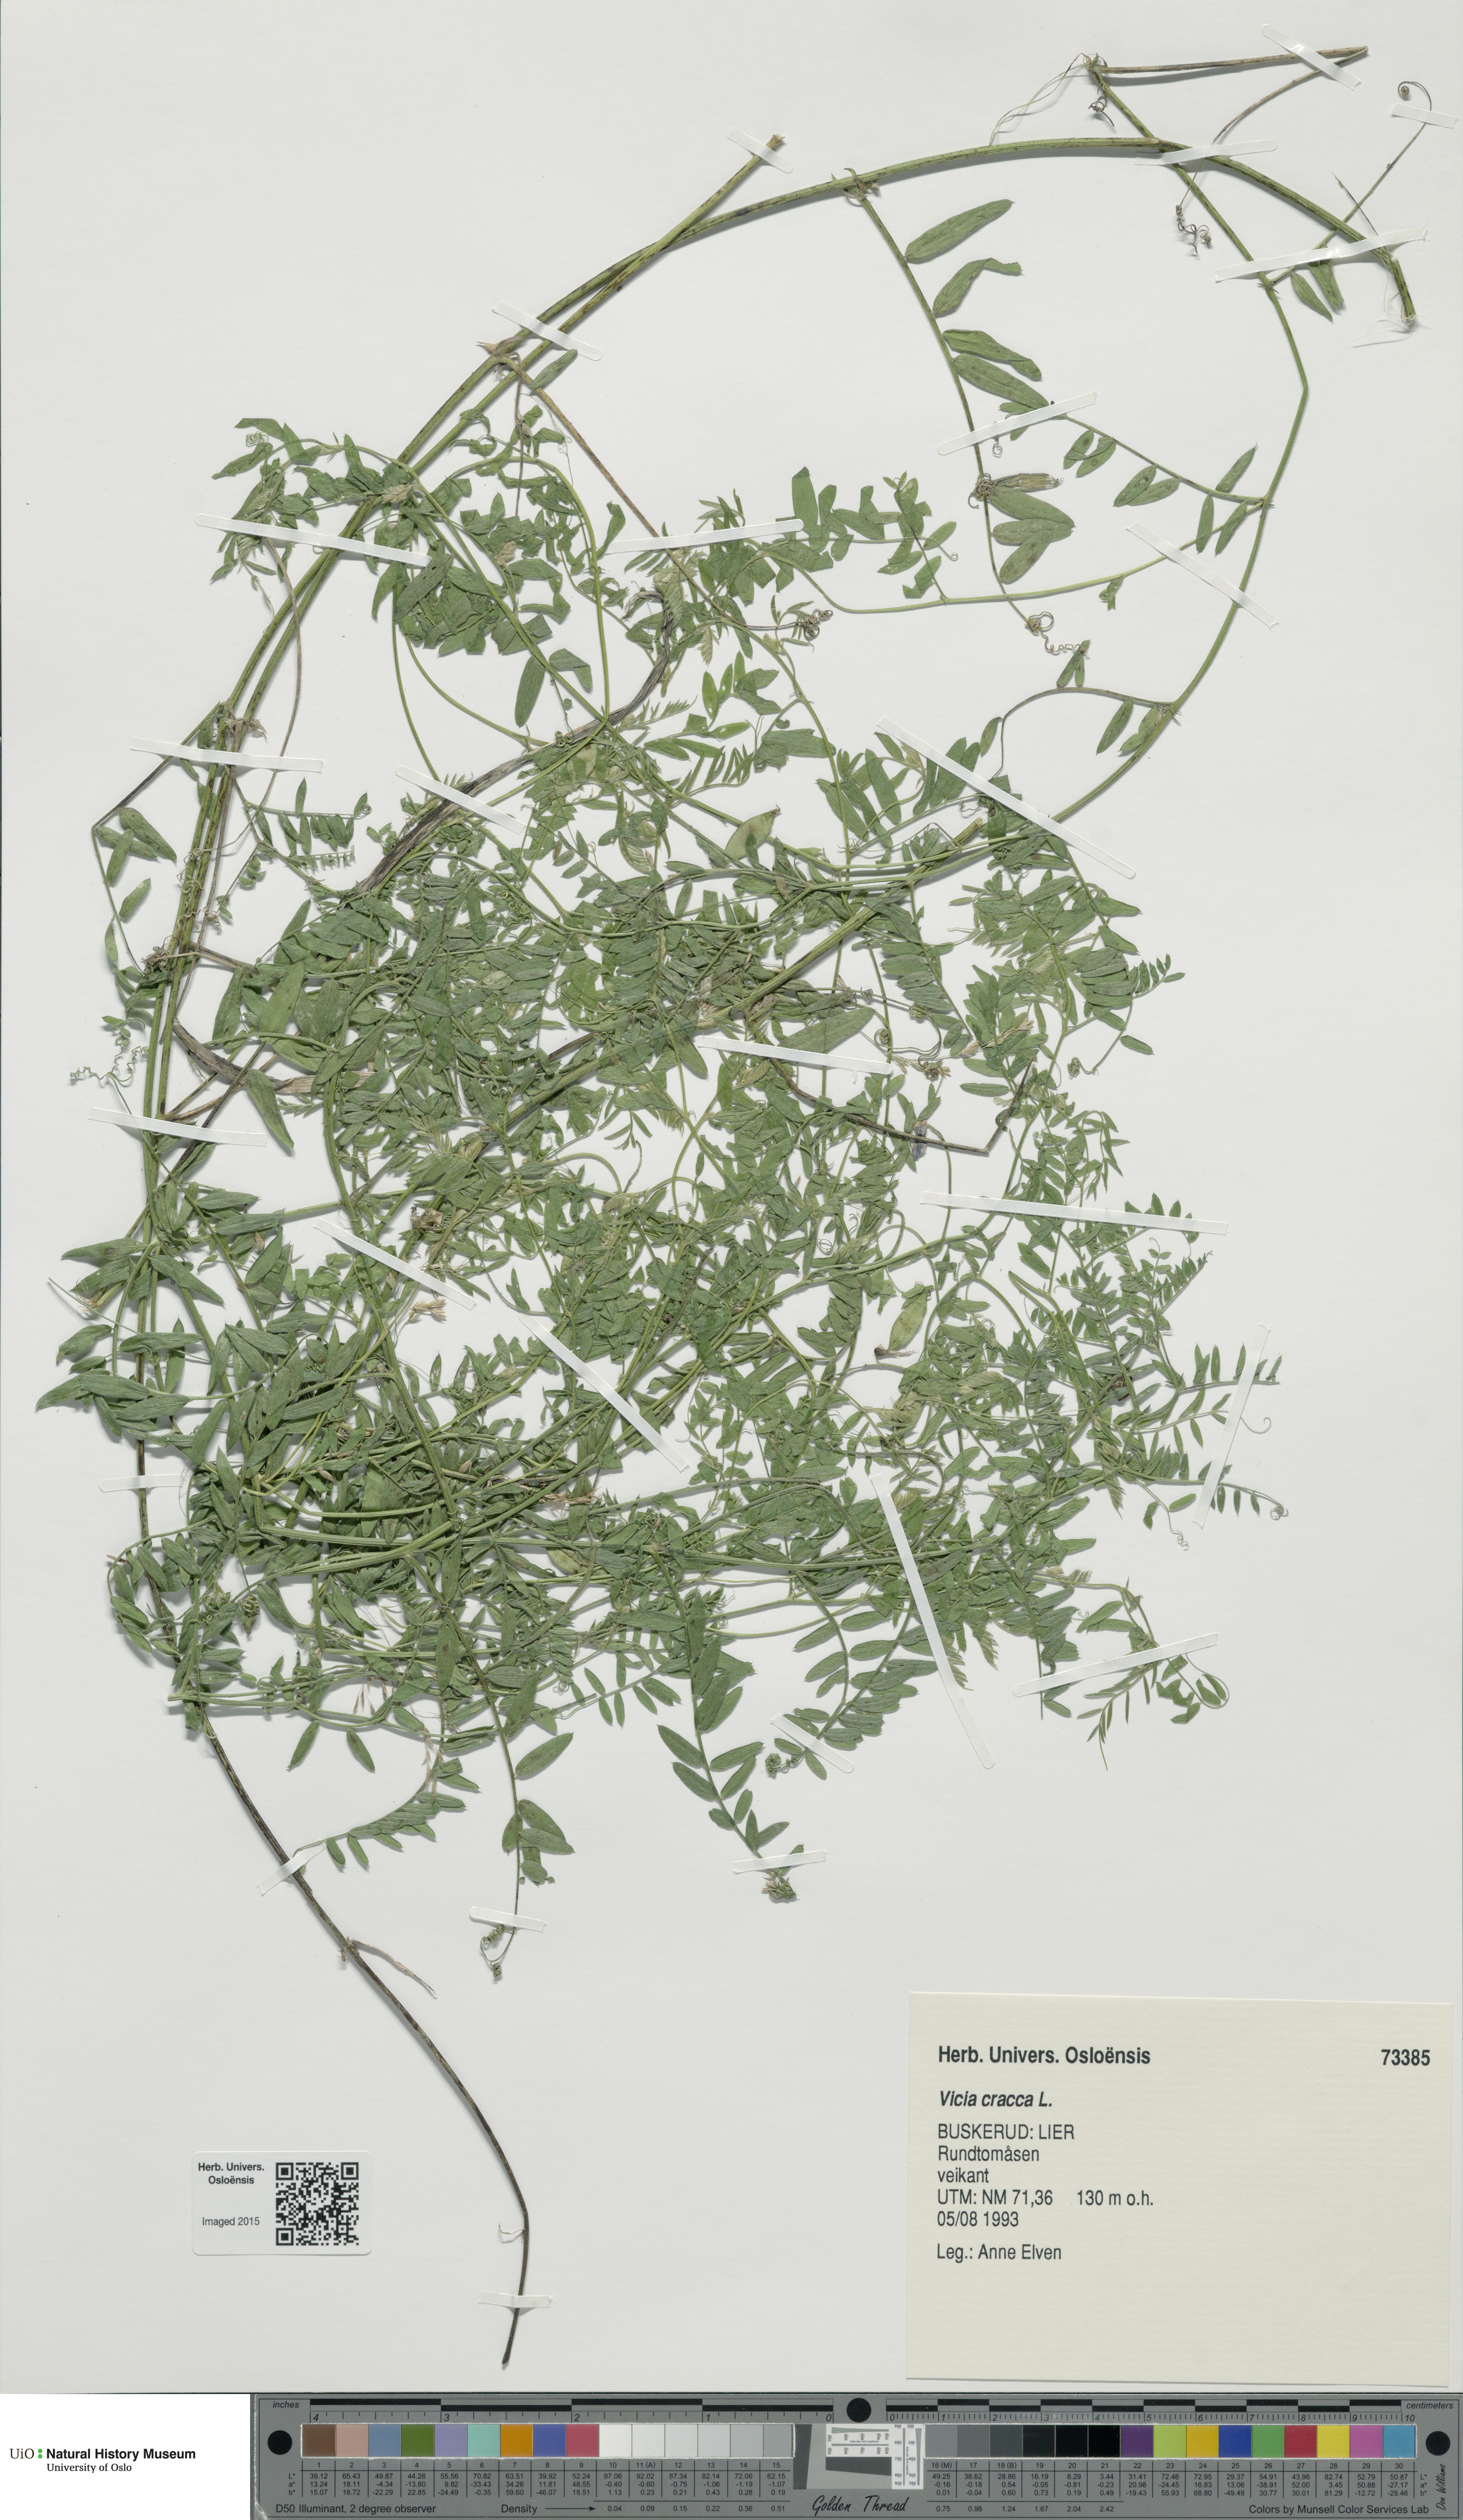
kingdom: Plantae
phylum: Tracheophyta
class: Magnoliopsida
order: Fabales
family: Fabaceae
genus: Vicia
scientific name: Vicia cracca
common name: Bird vetch
